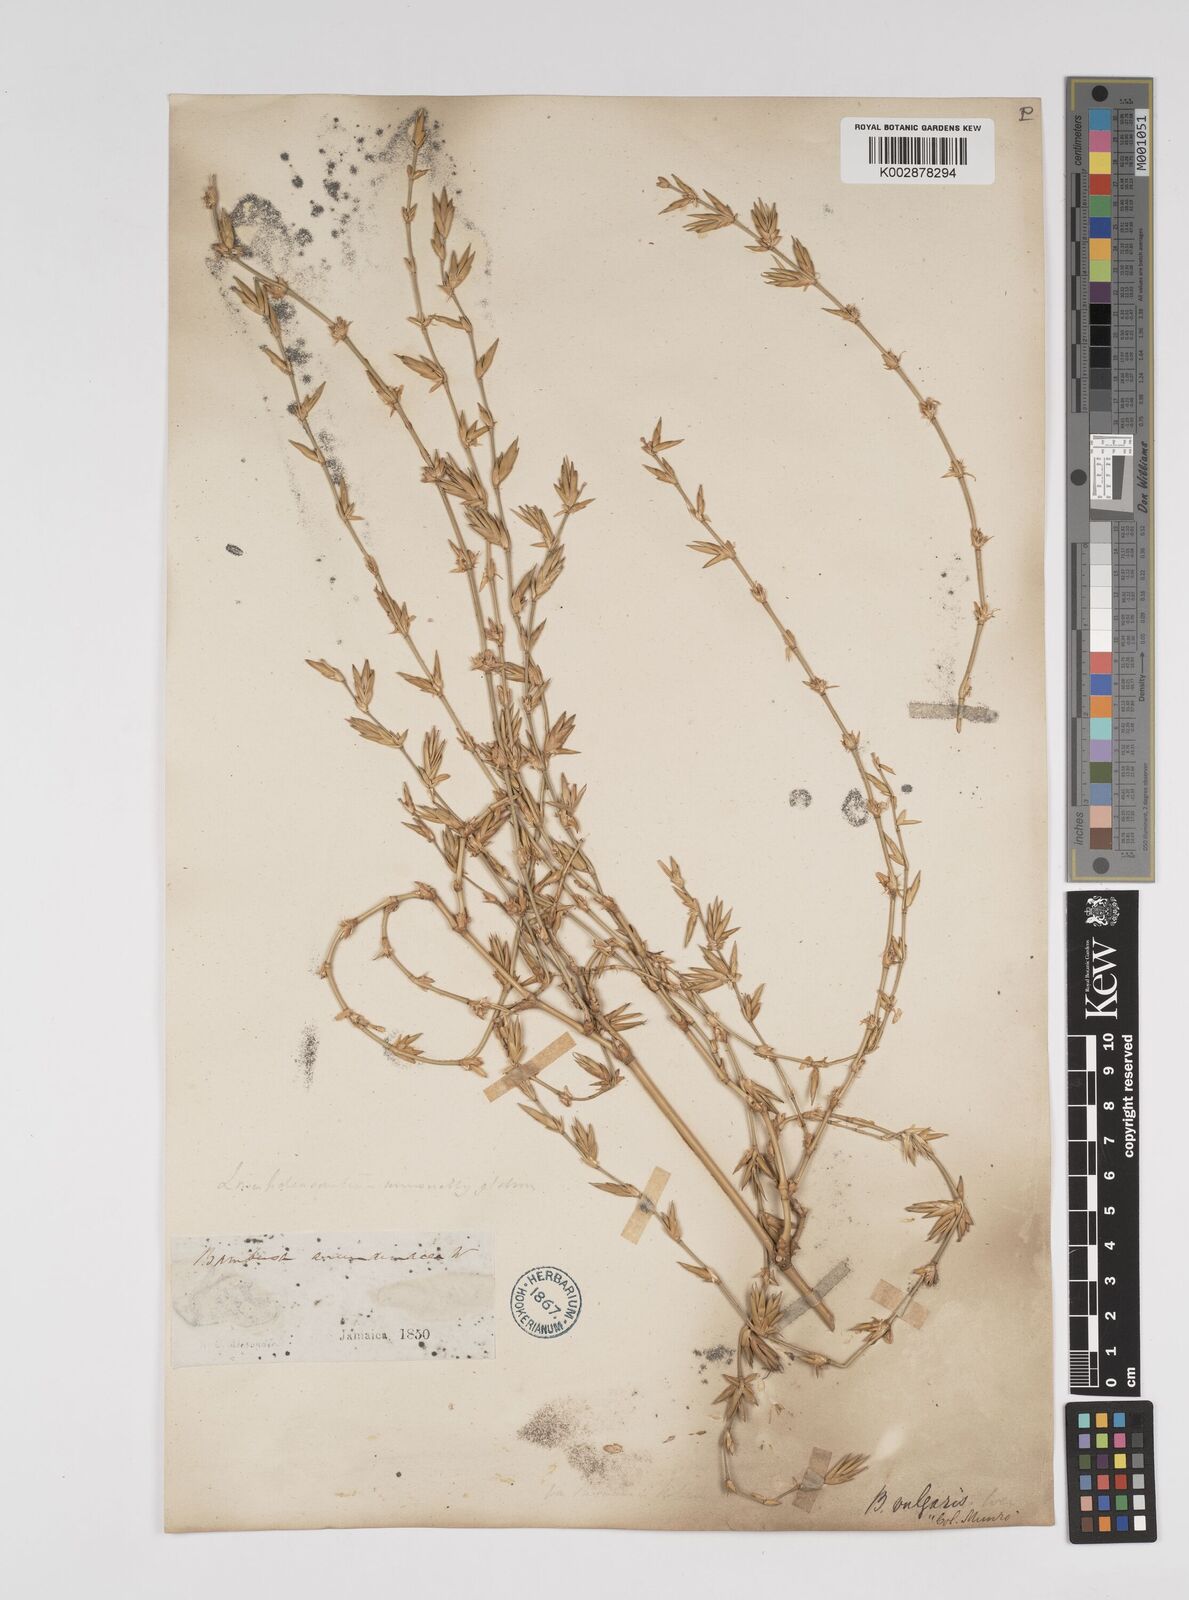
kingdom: Plantae
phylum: Tracheophyta
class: Liliopsida
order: Poales
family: Poaceae
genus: Bambusa
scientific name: Bambusa vulgaris
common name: Common bamboo
